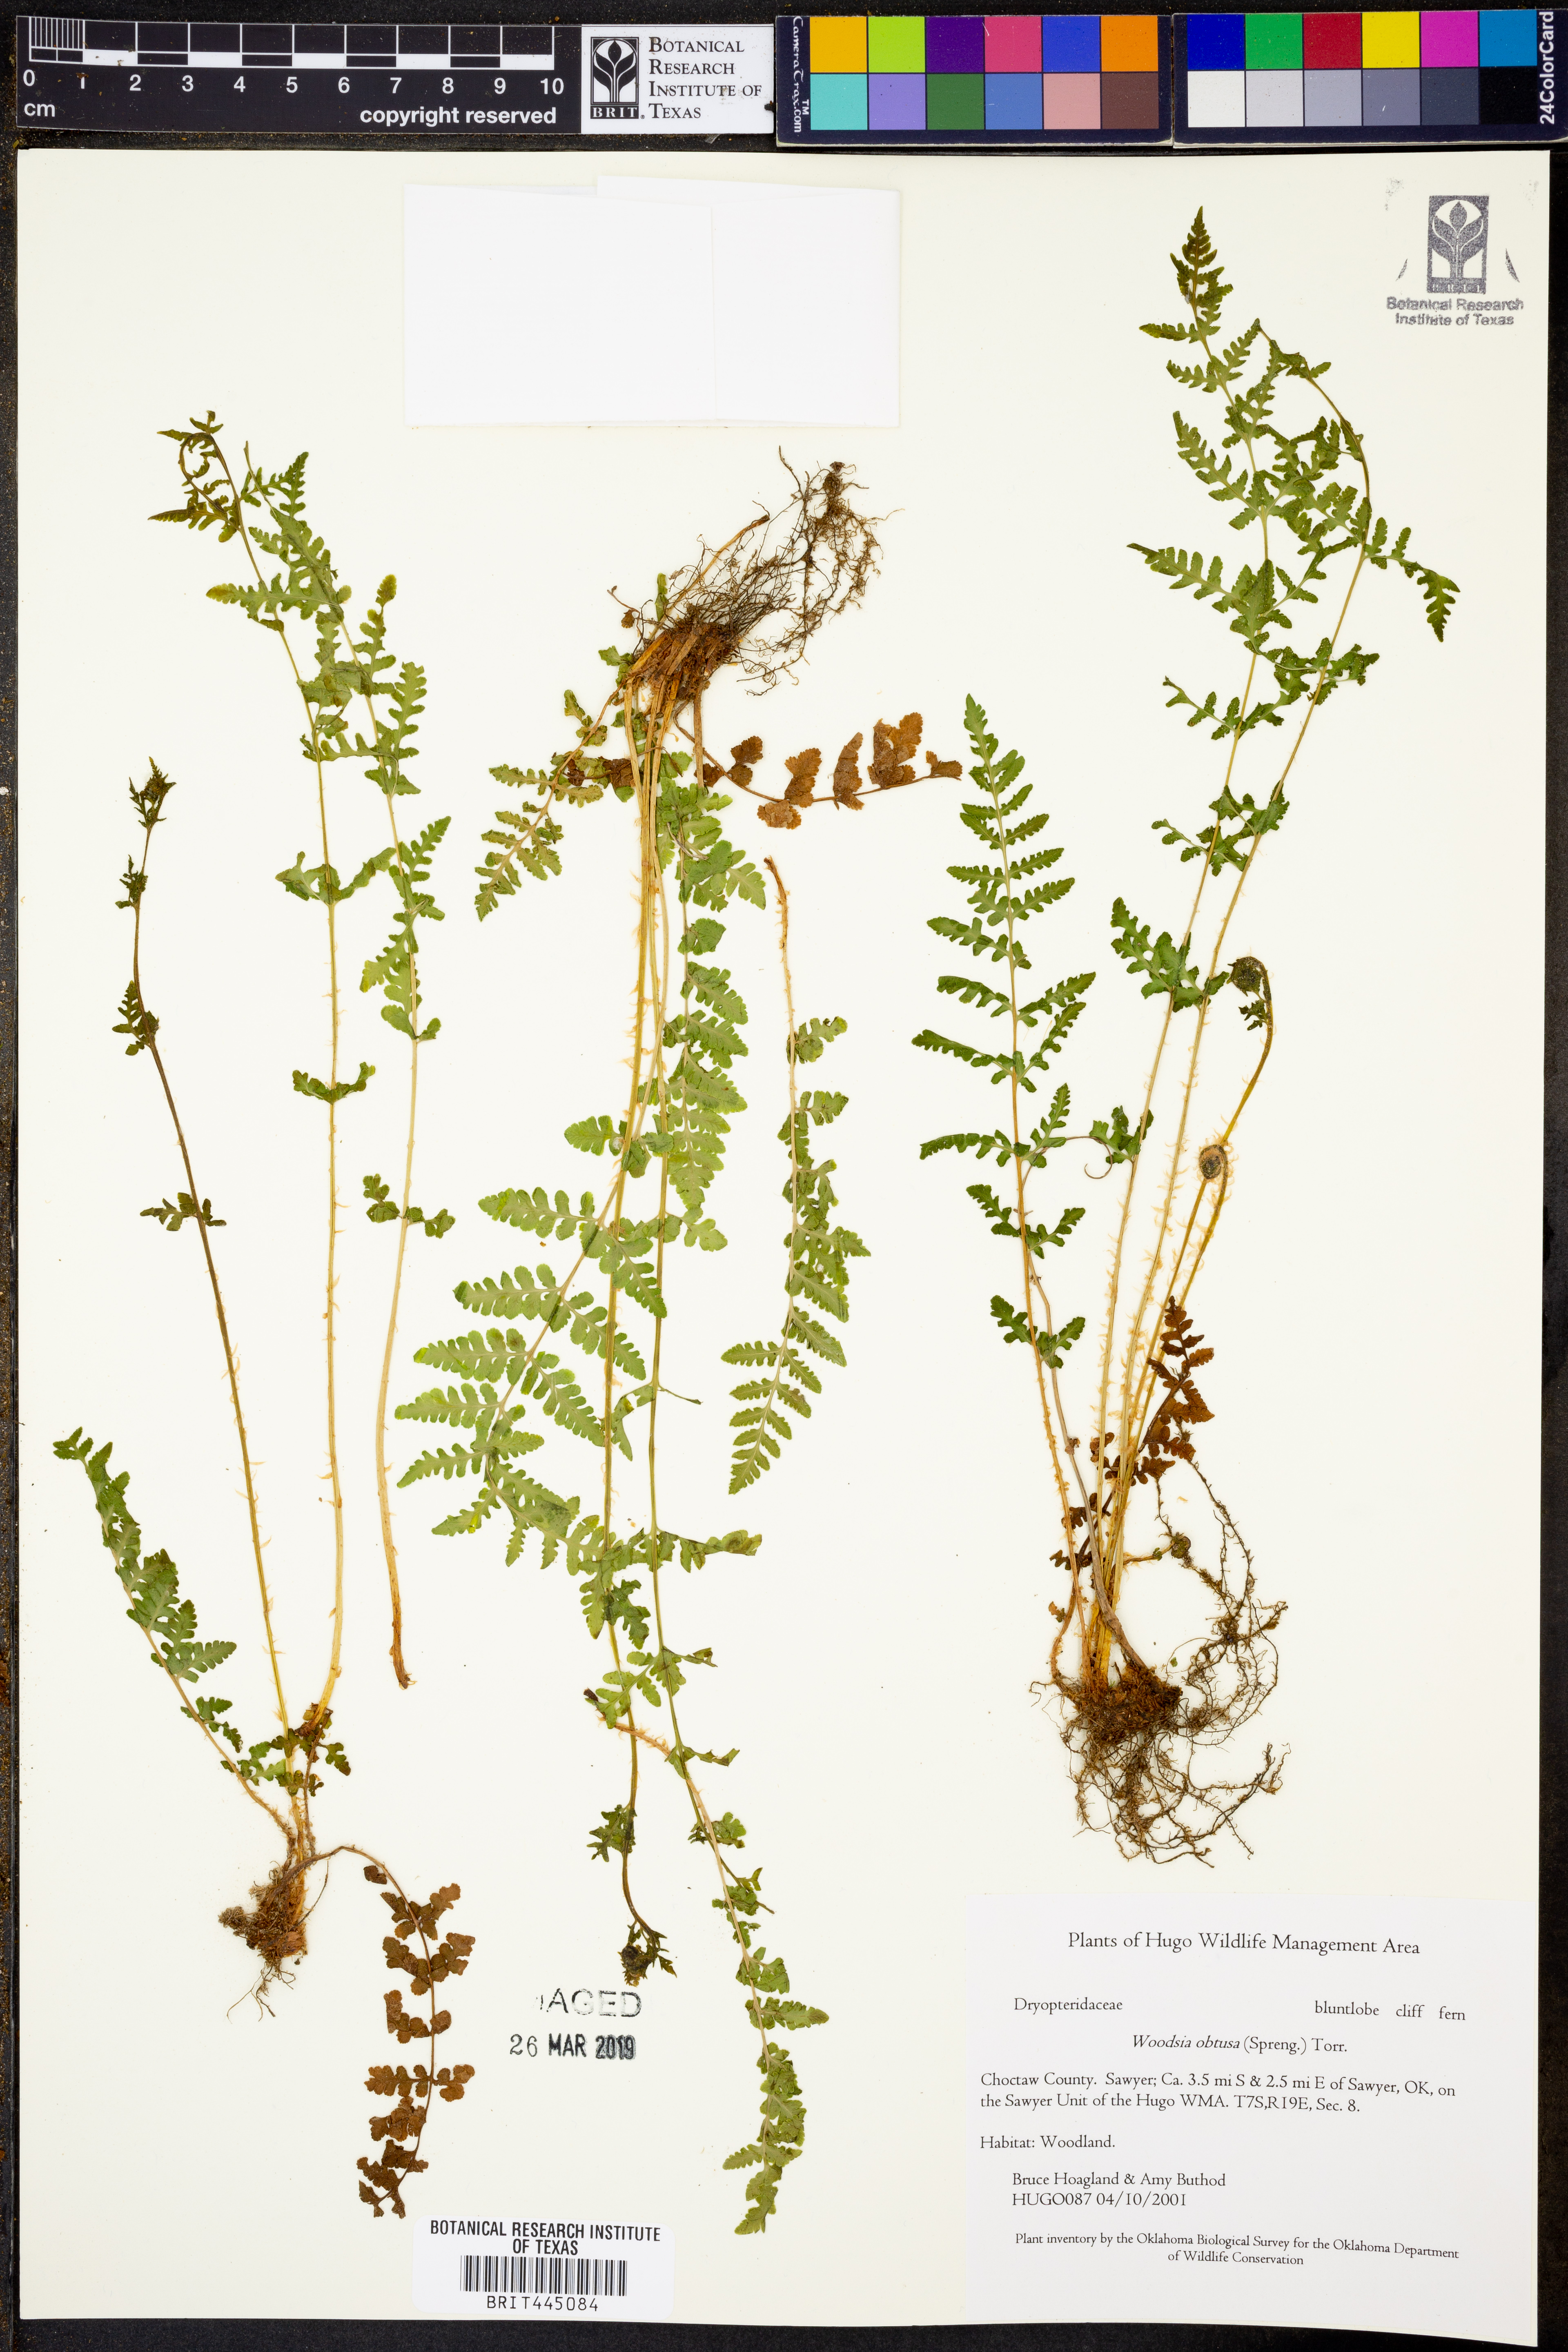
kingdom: Plantae
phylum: Tracheophyta
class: Polypodiopsida
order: Polypodiales
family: Woodsiaceae
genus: Physematium
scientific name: Physematium obtusum
